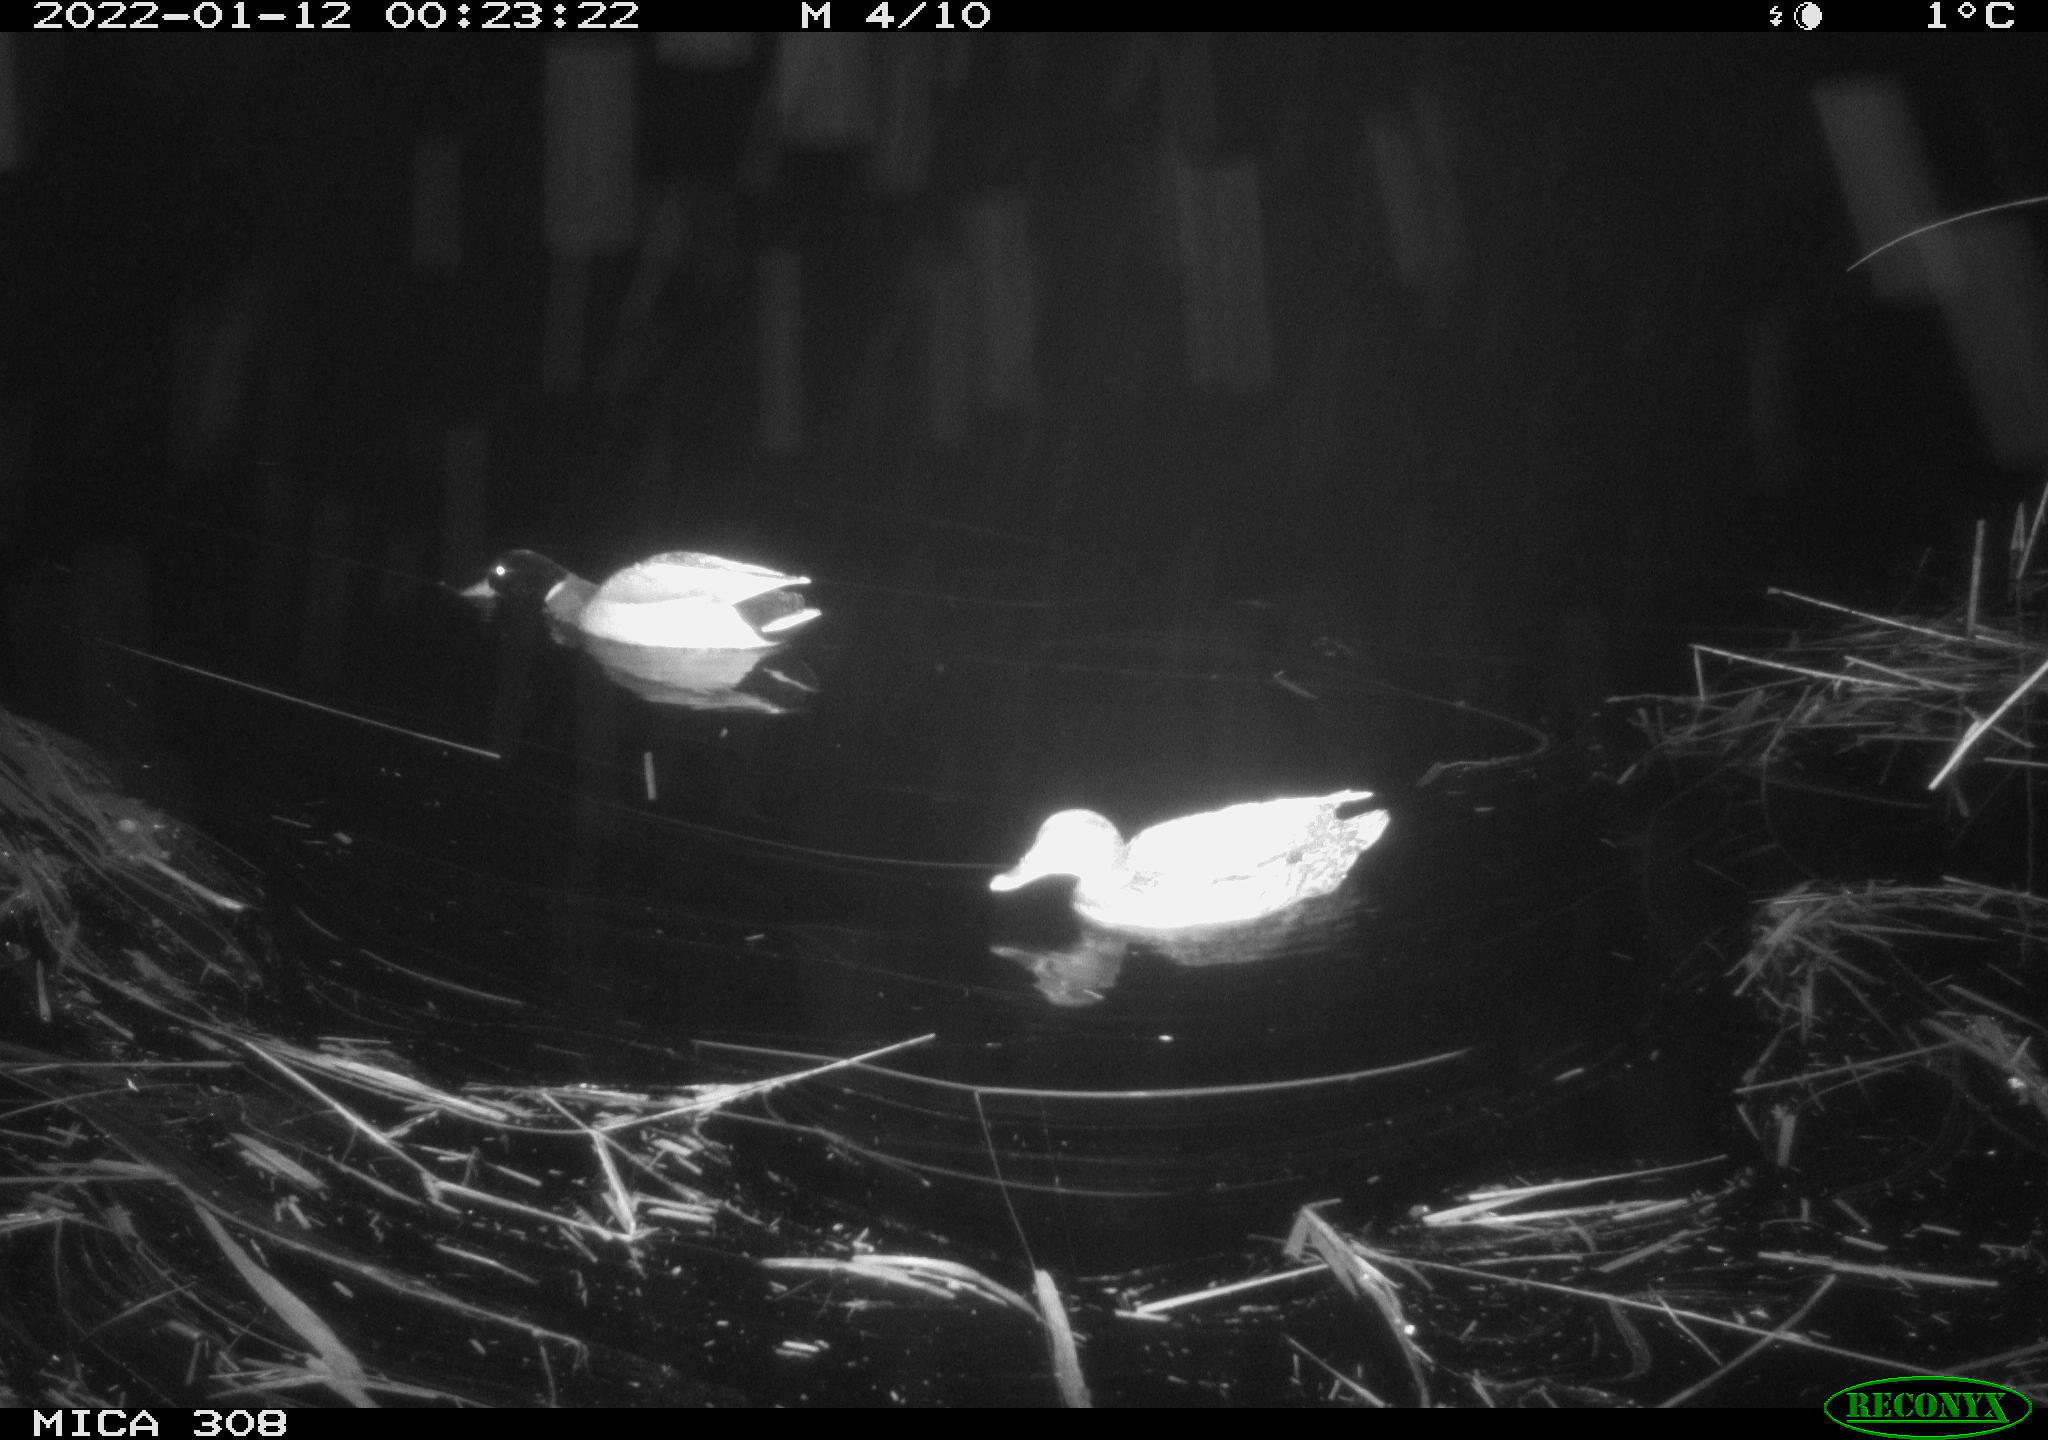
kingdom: Animalia
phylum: Chordata
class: Aves
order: Gruiformes
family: Rallidae
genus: Gallinula
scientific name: Gallinula chloropus
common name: Common moorhen
